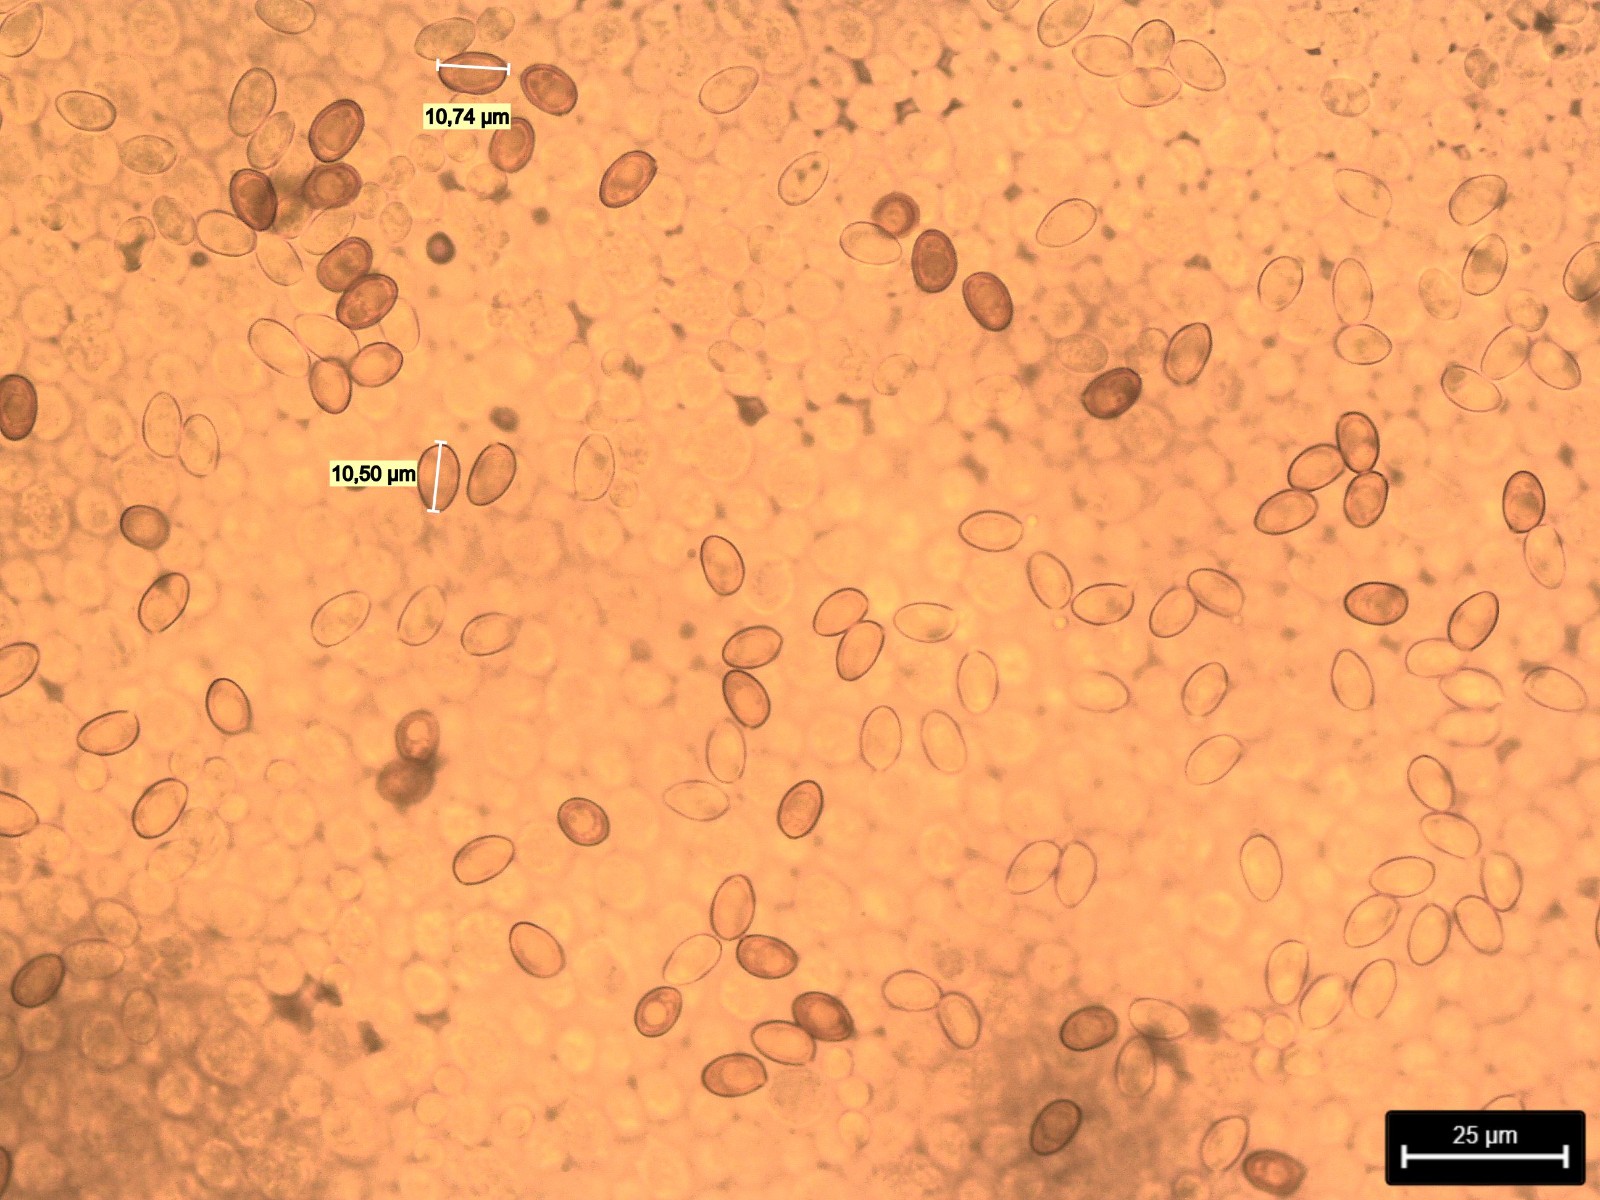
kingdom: Fungi
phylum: Basidiomycota
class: Agaricomycetes
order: Agaricales
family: Agaricaceae
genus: Agaricus
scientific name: Agaricus crocodilinus
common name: landsby-champignon
